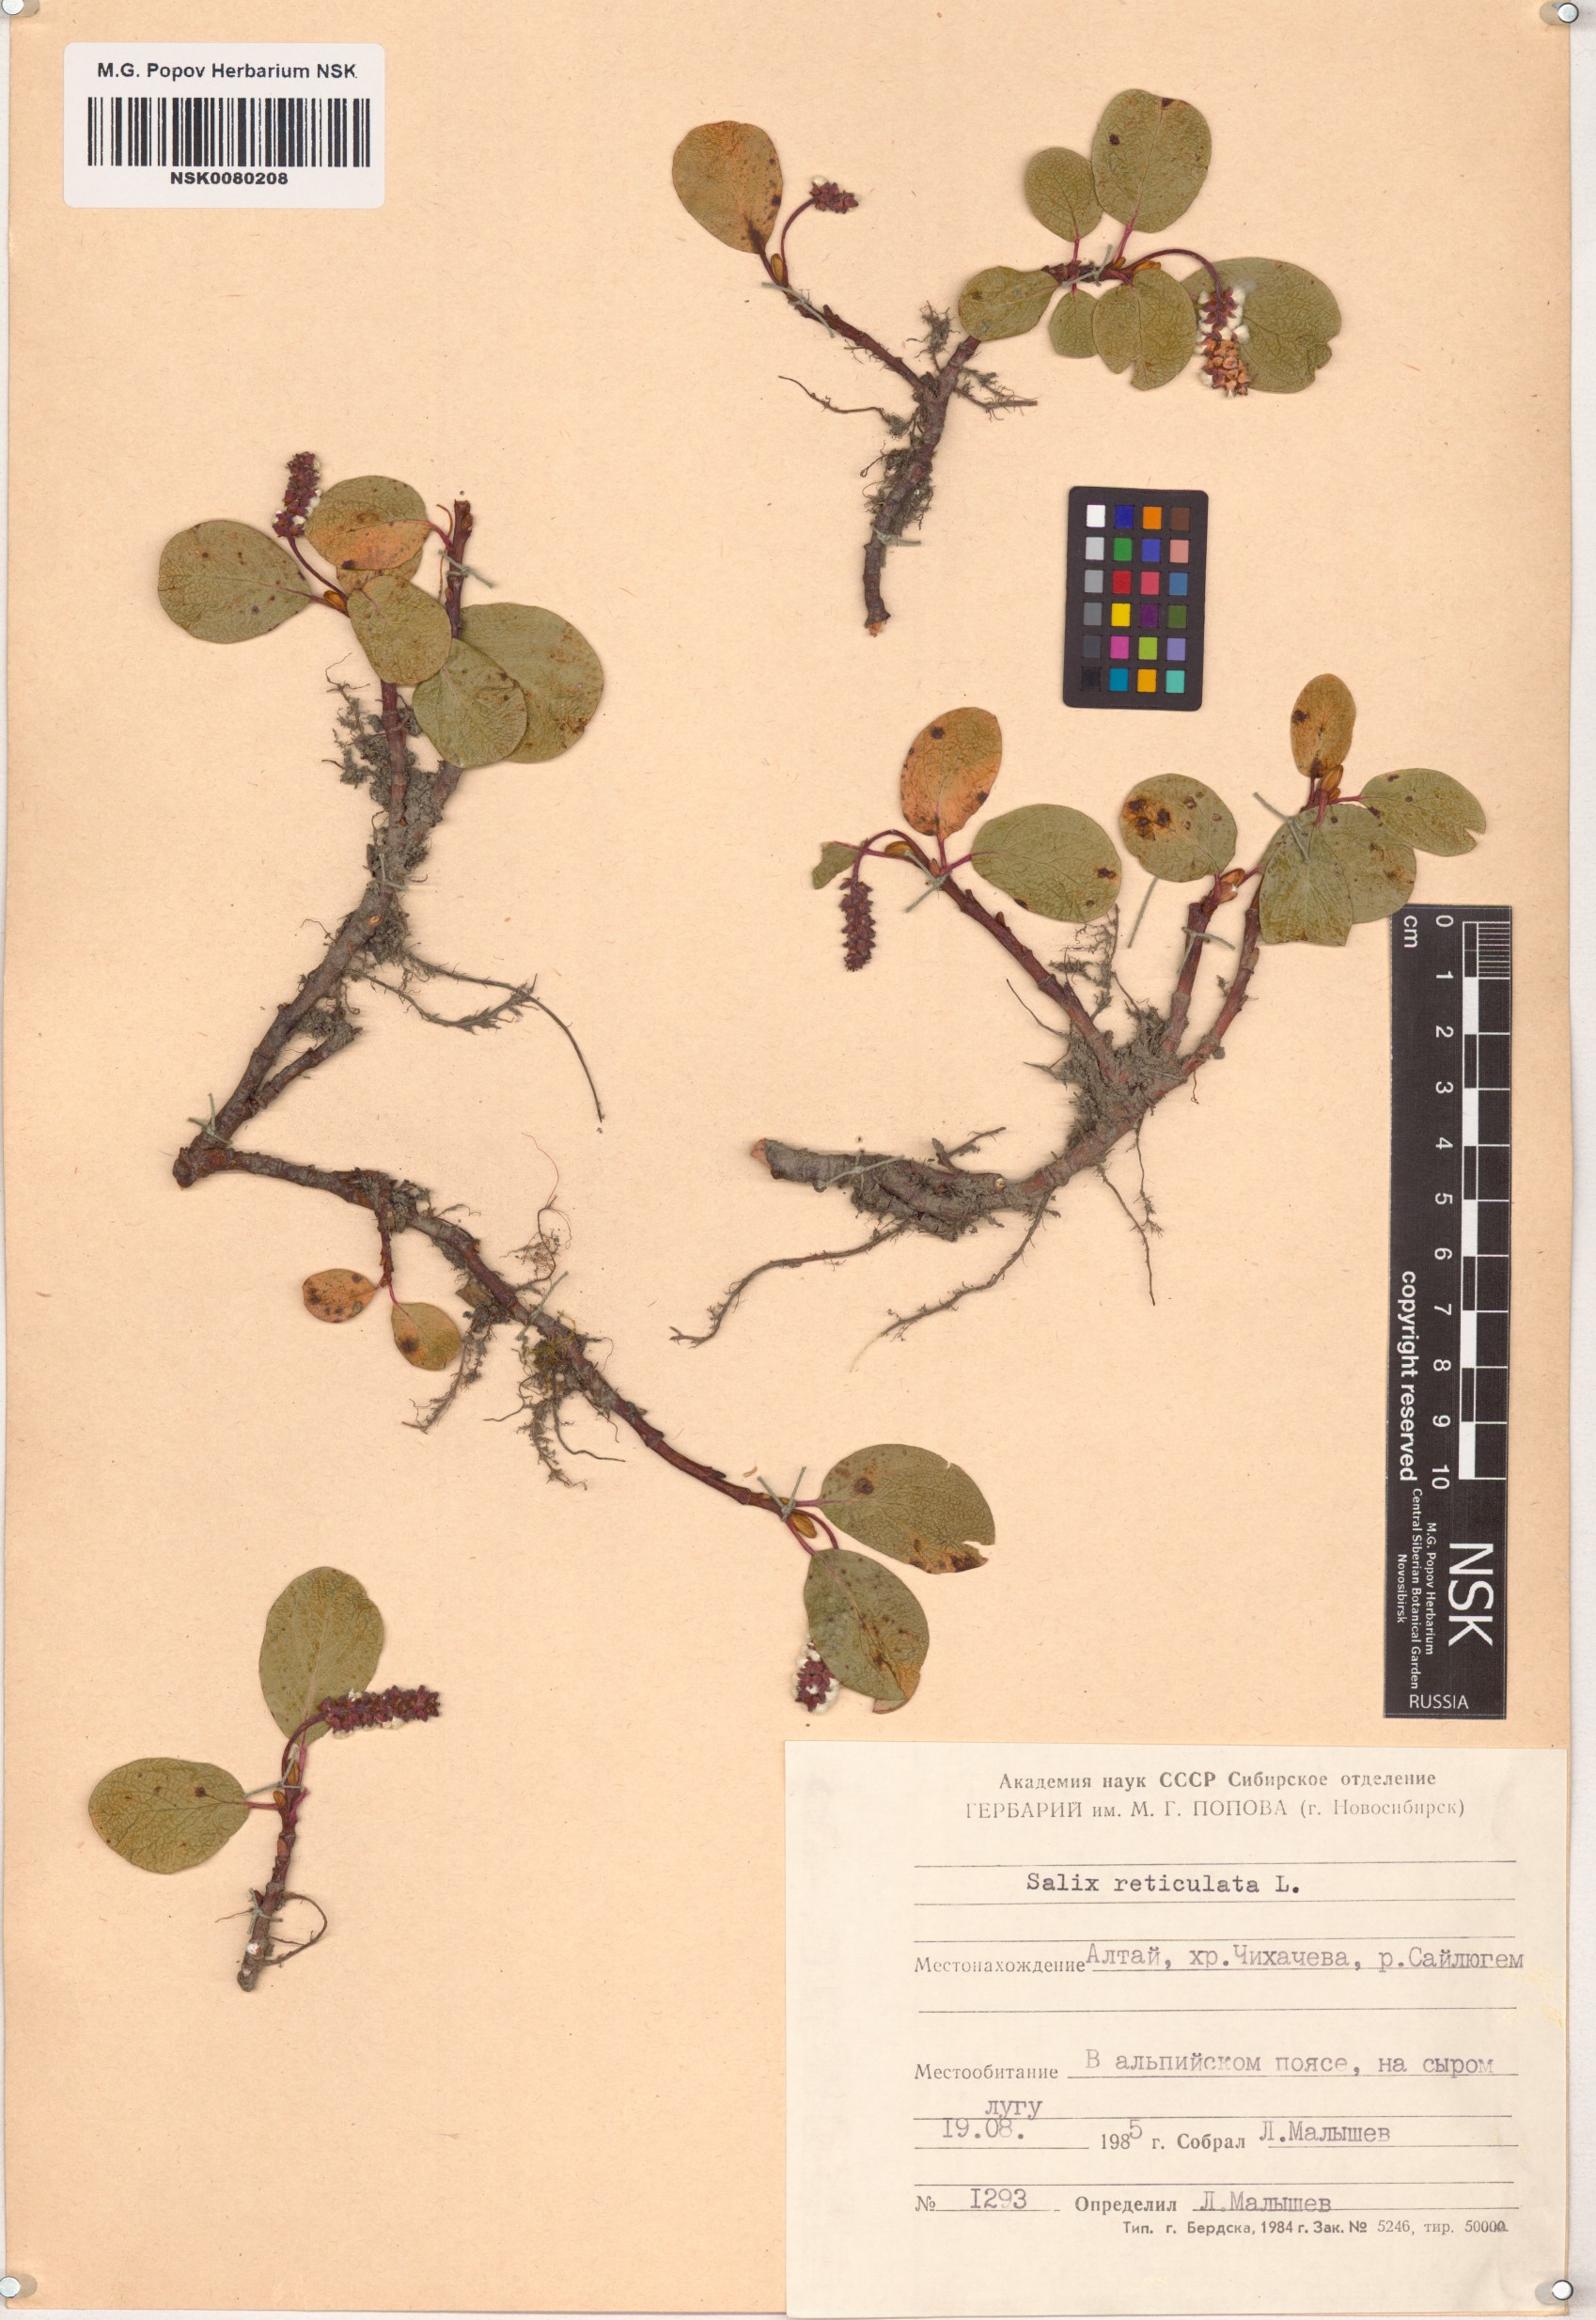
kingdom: Plantae
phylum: Tracheophyta
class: Magnoliopsida
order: Malpighiales
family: Salicaceae
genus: Salix
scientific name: Salix reticulata
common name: Net-leaved willow
